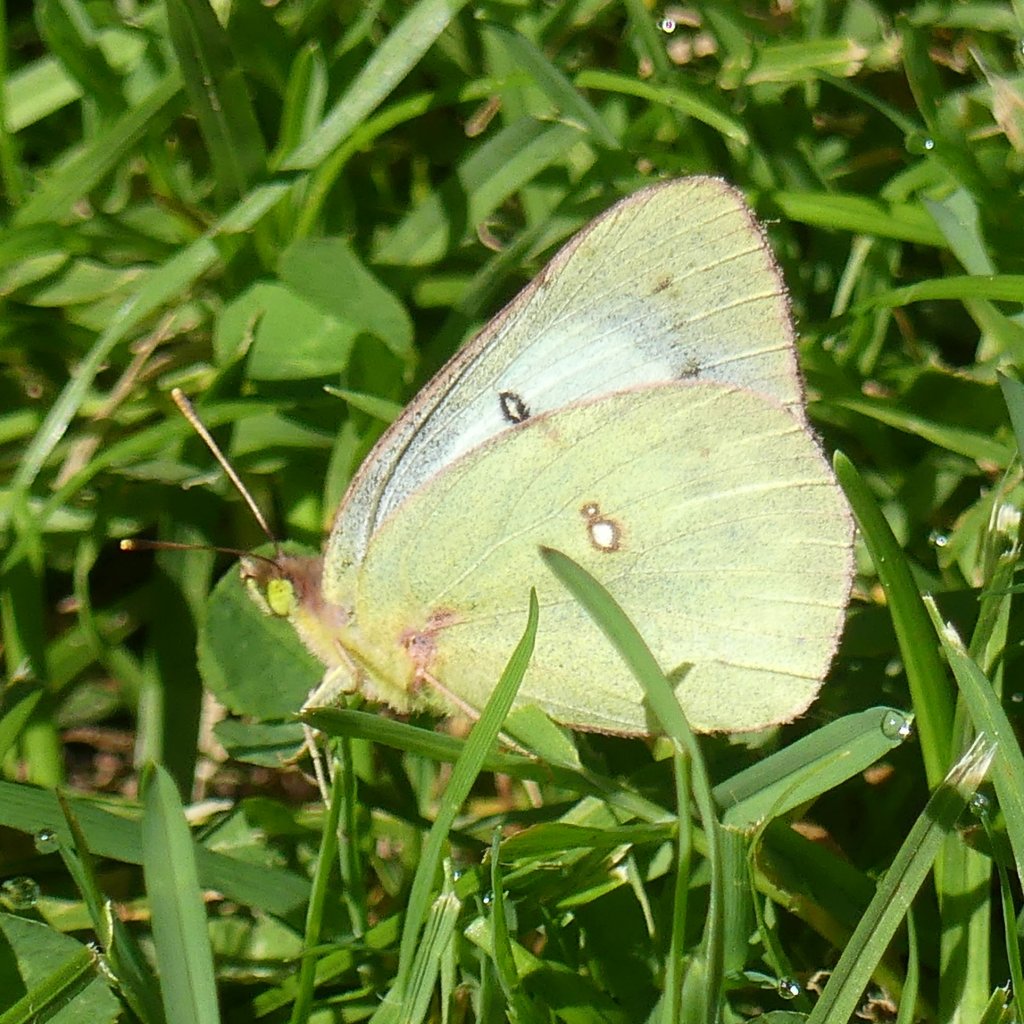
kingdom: Animalia
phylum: Arthropoda
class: Insecta
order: Lepidoptera
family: Pieridae
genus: Colias
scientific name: Colias philodice
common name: Clouded Sulphur
